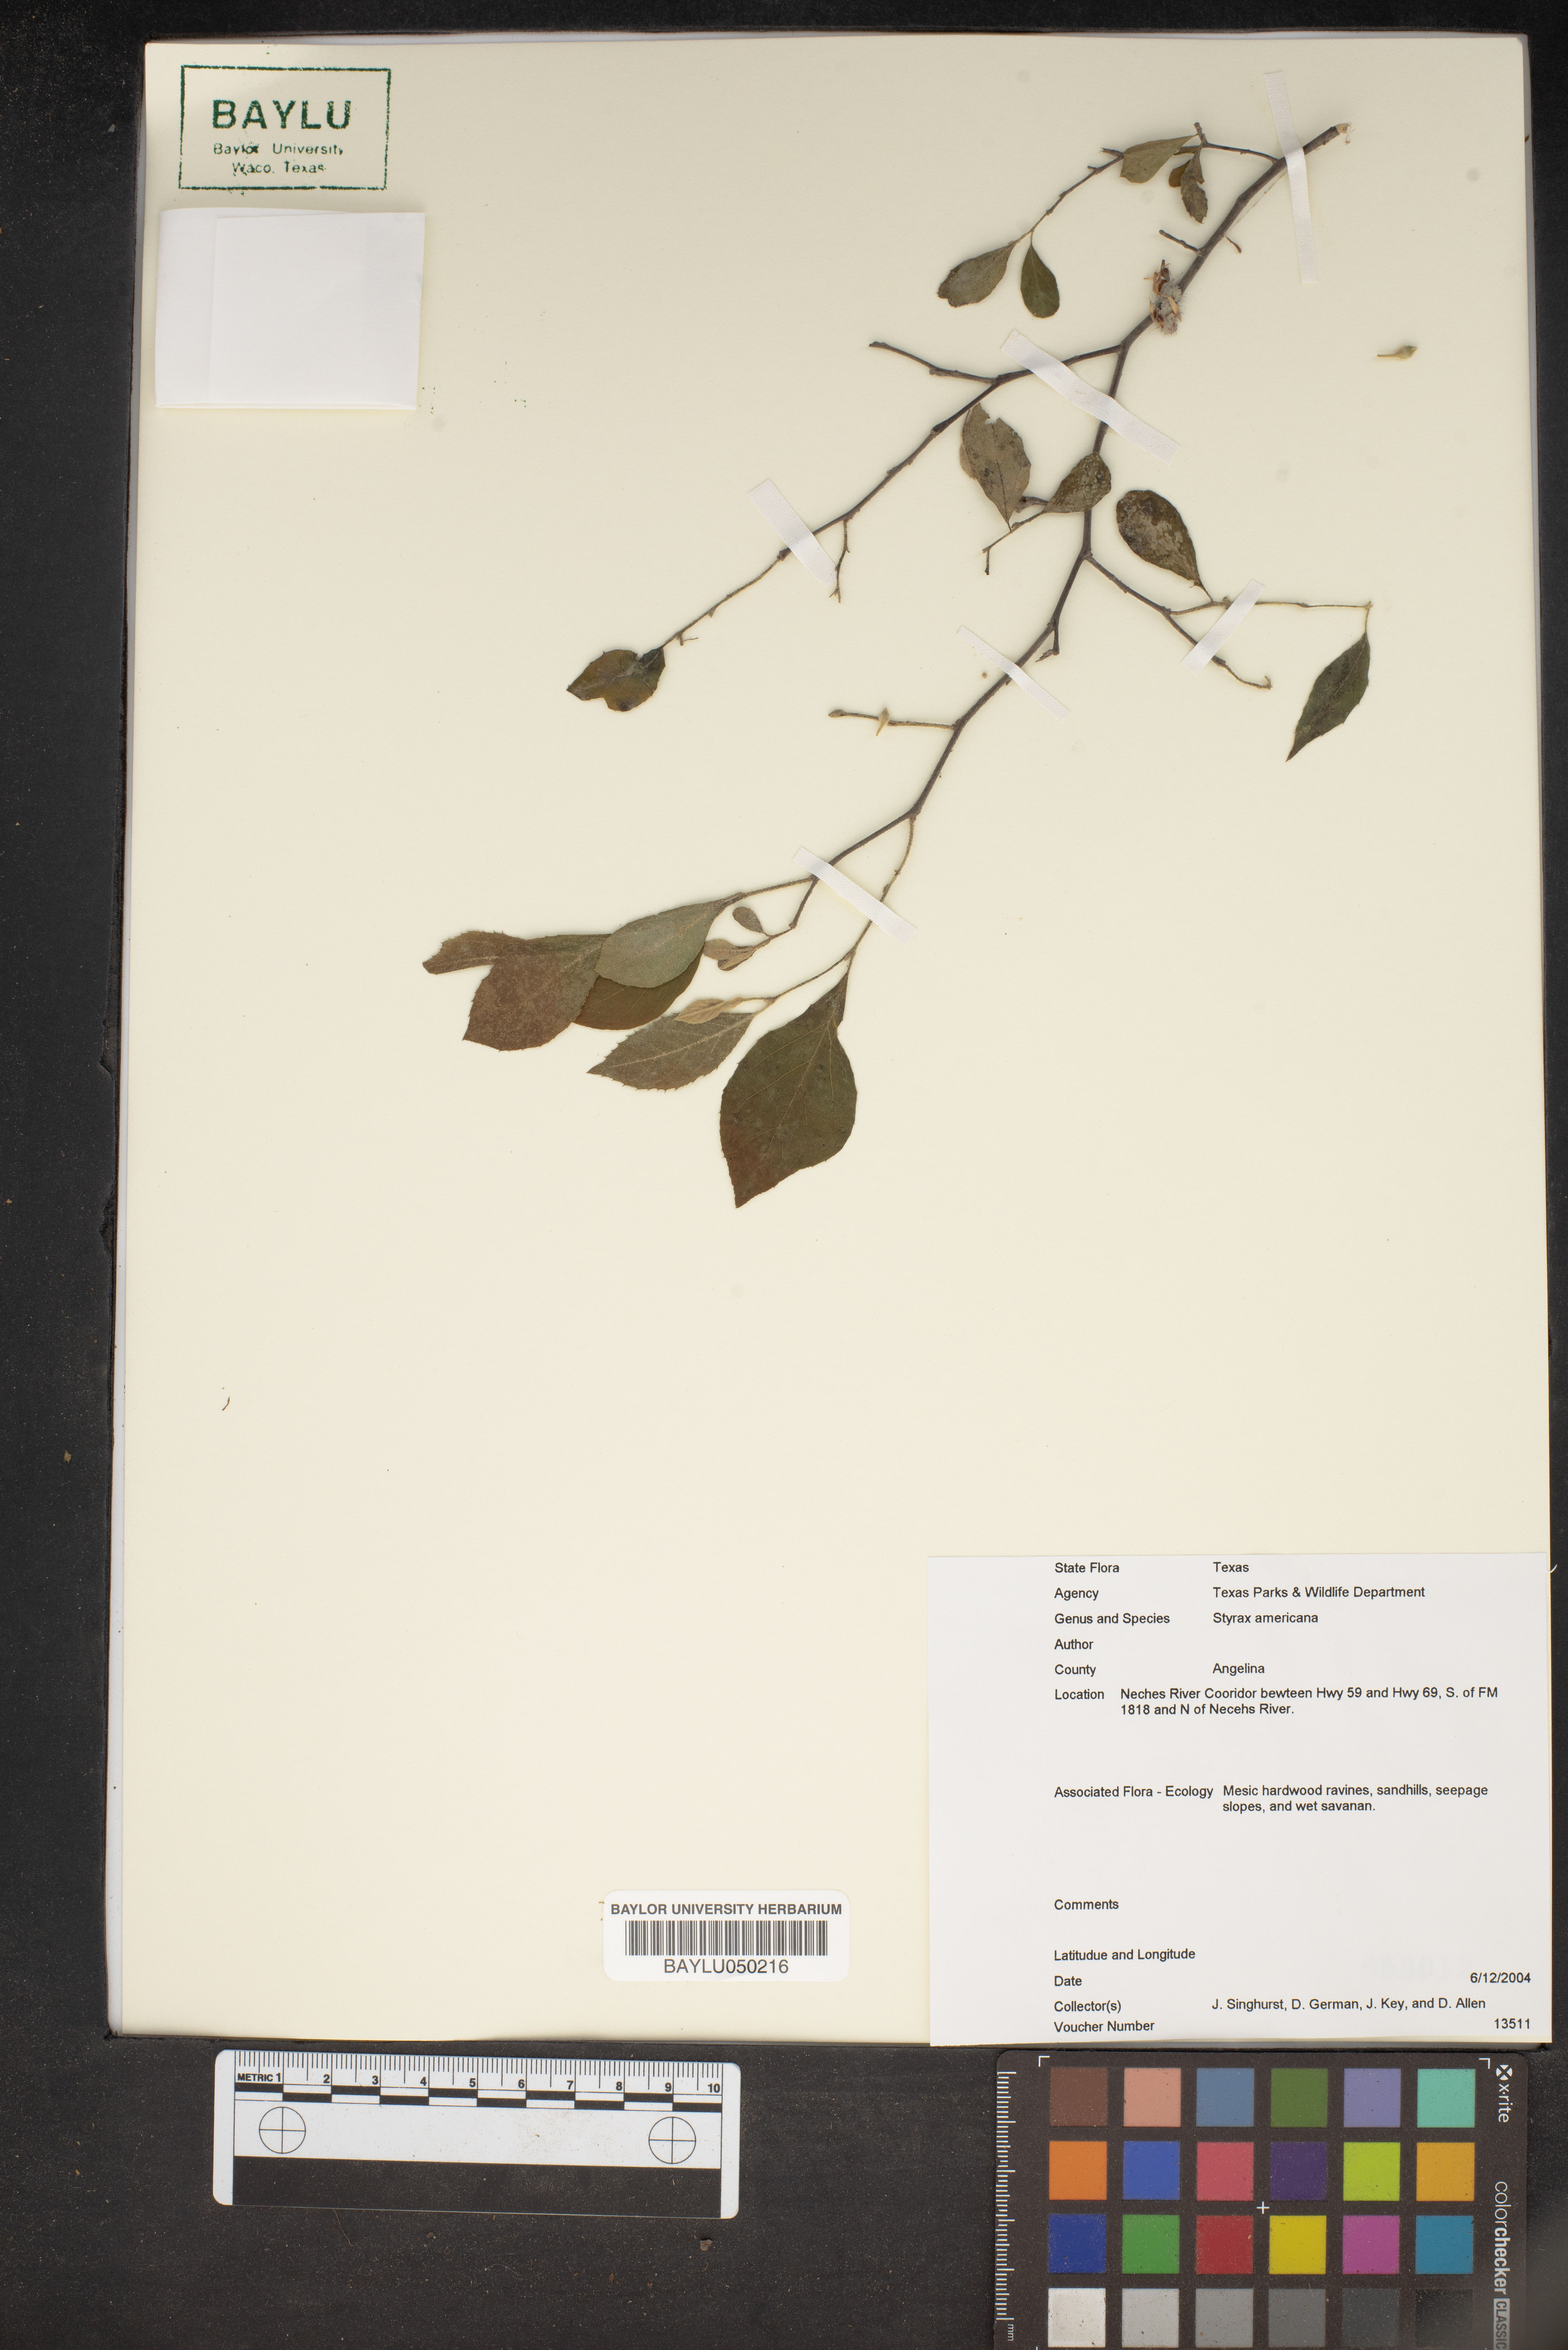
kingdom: Plantae
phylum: Tracheophyta
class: Magnoliopsida
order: Ericales
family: Styracaceae
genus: Styrax
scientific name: Styrax americanus
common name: American snowbell
